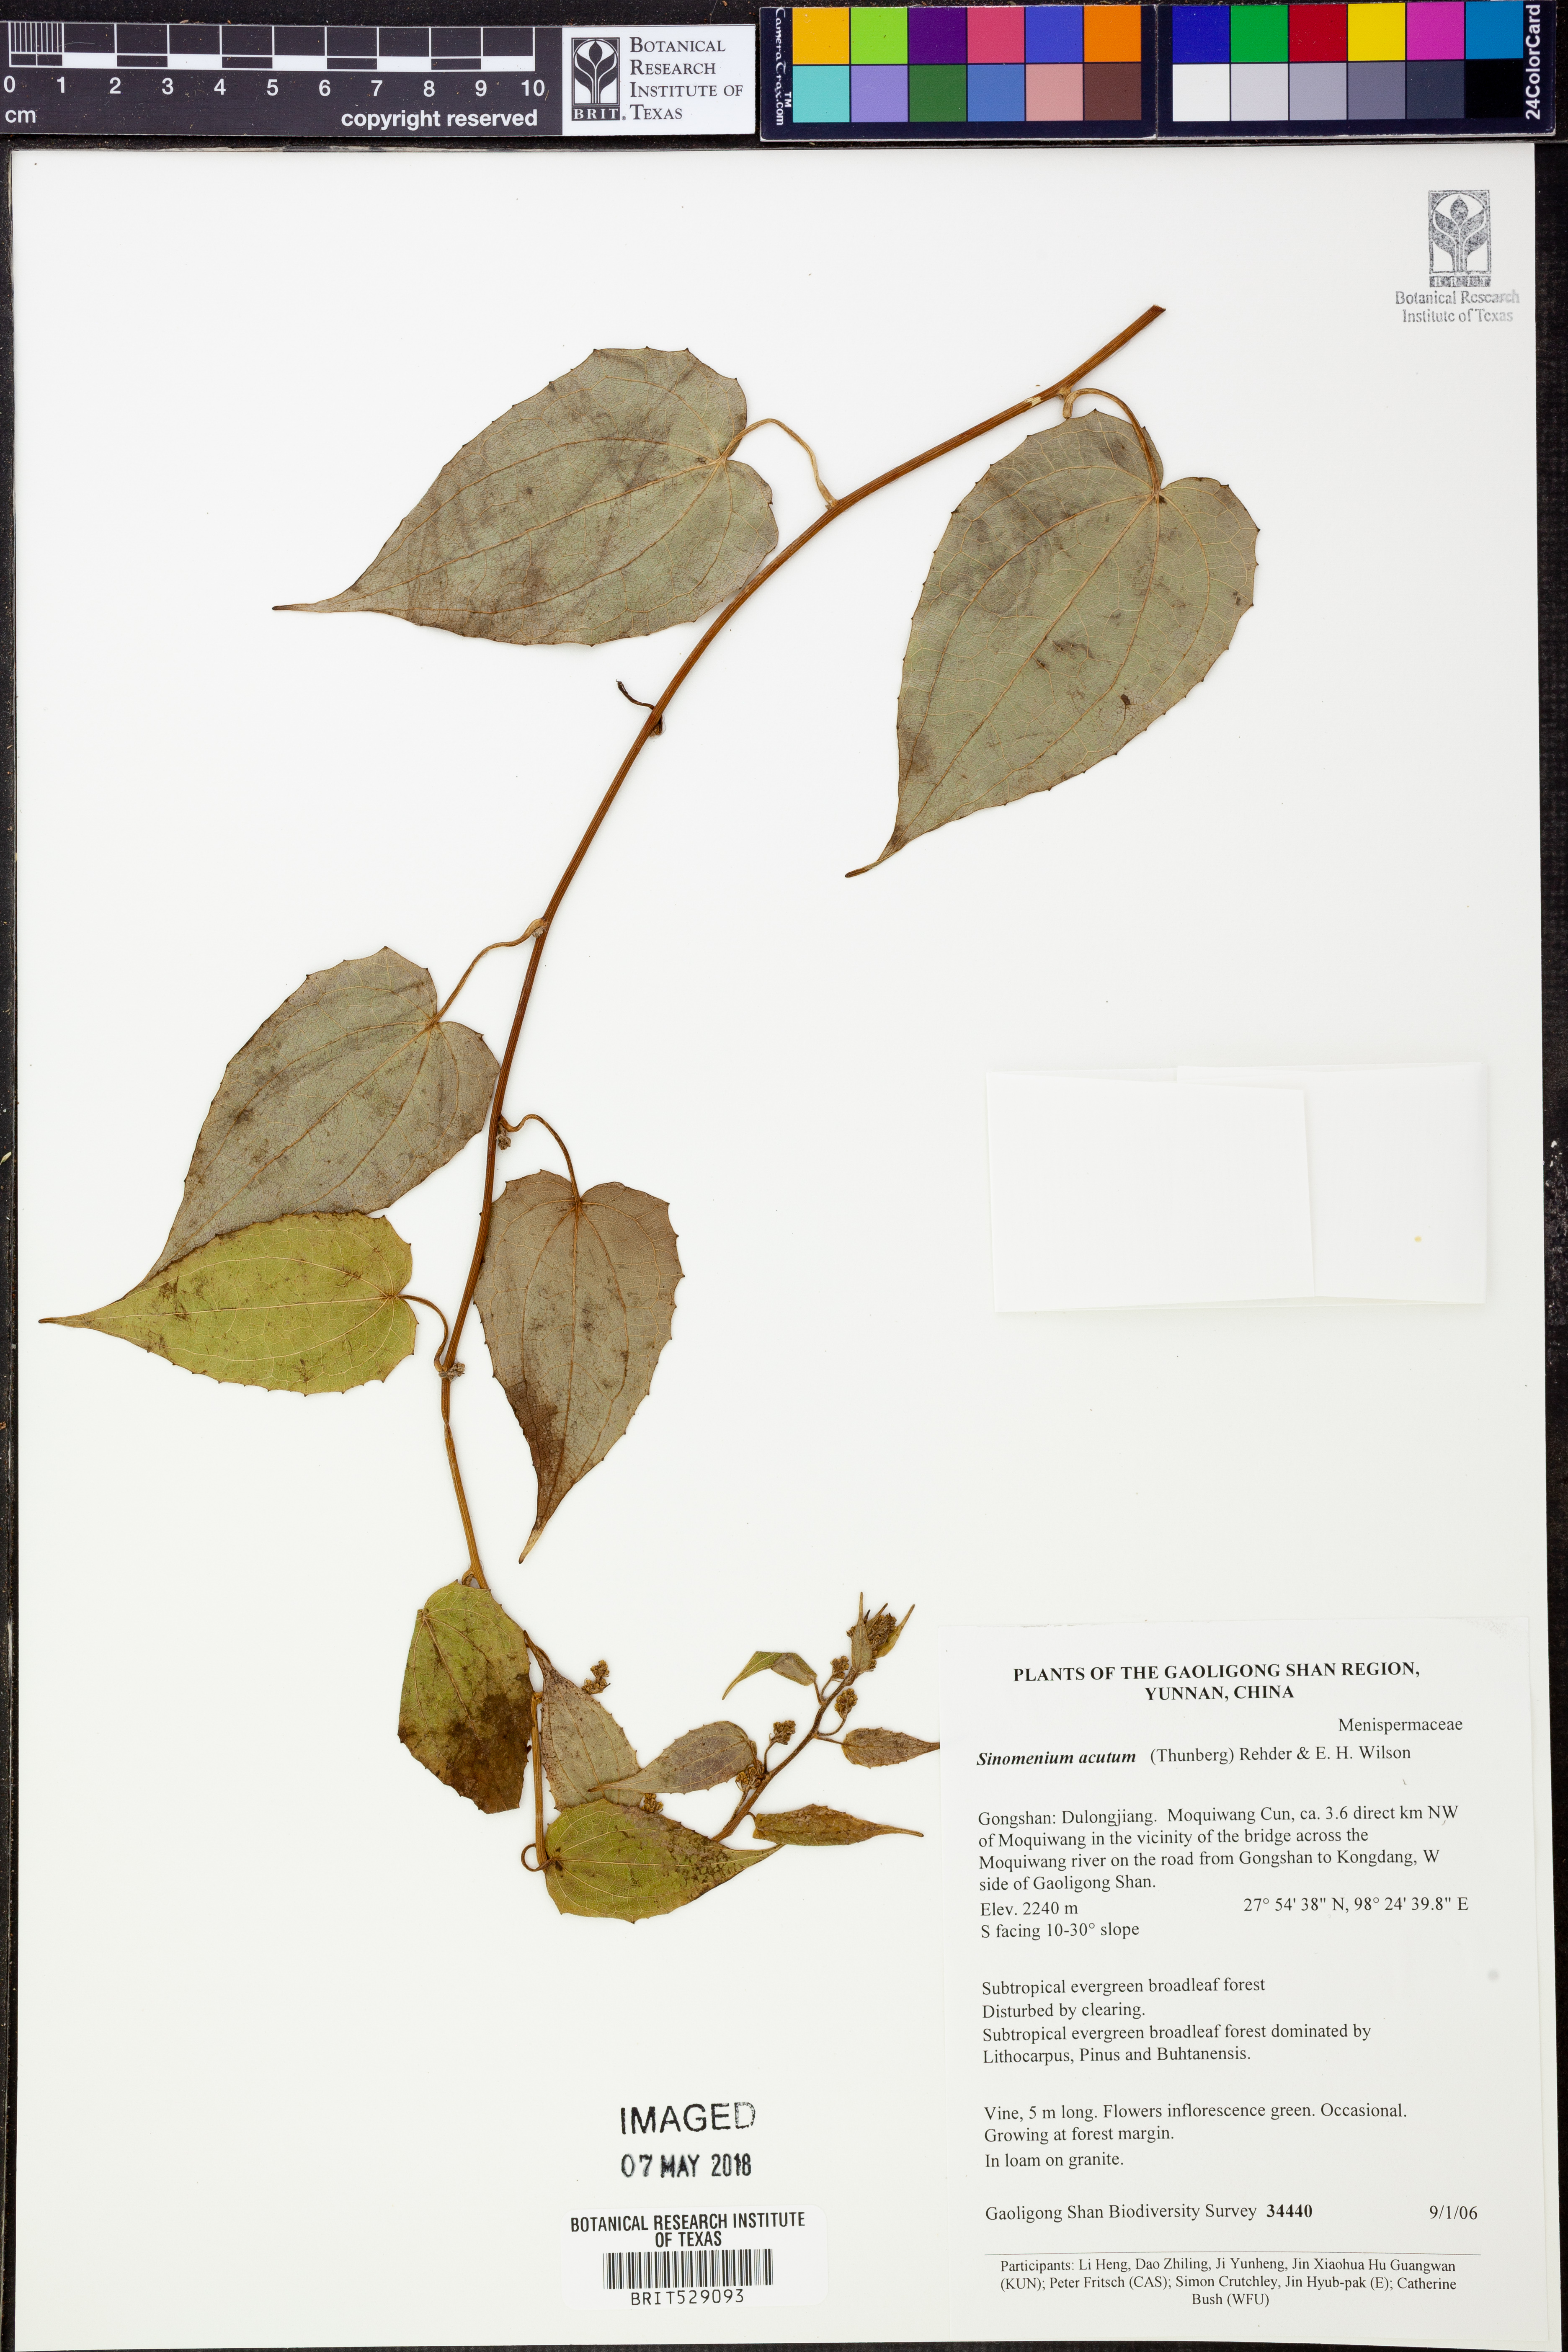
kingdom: Plantae
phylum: Tracheophyta
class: Magnoliopsida
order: Ranunculales
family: Menispermaceae
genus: Sinomenium
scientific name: Sinomenium acutum
